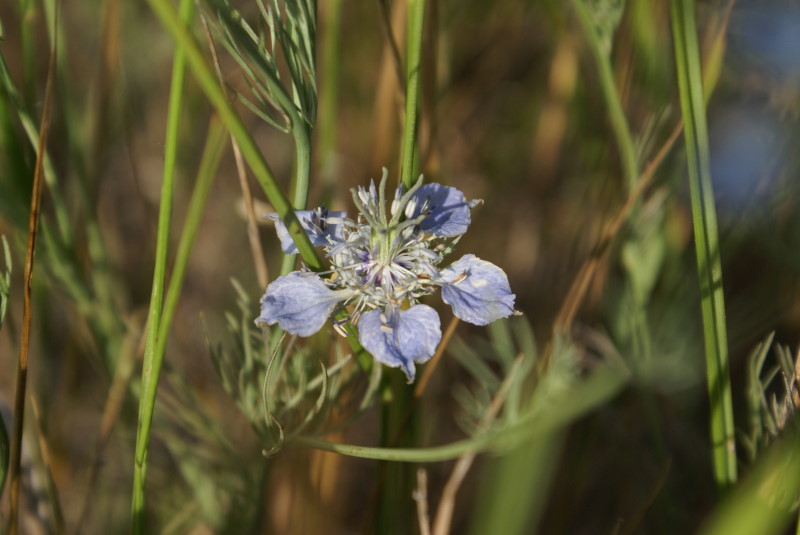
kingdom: Plantae
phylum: Tracheophyta
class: Magnoliopsida
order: Ranunculales
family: Ranunculaceae
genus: Nigella
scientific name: Nigella arvensis
